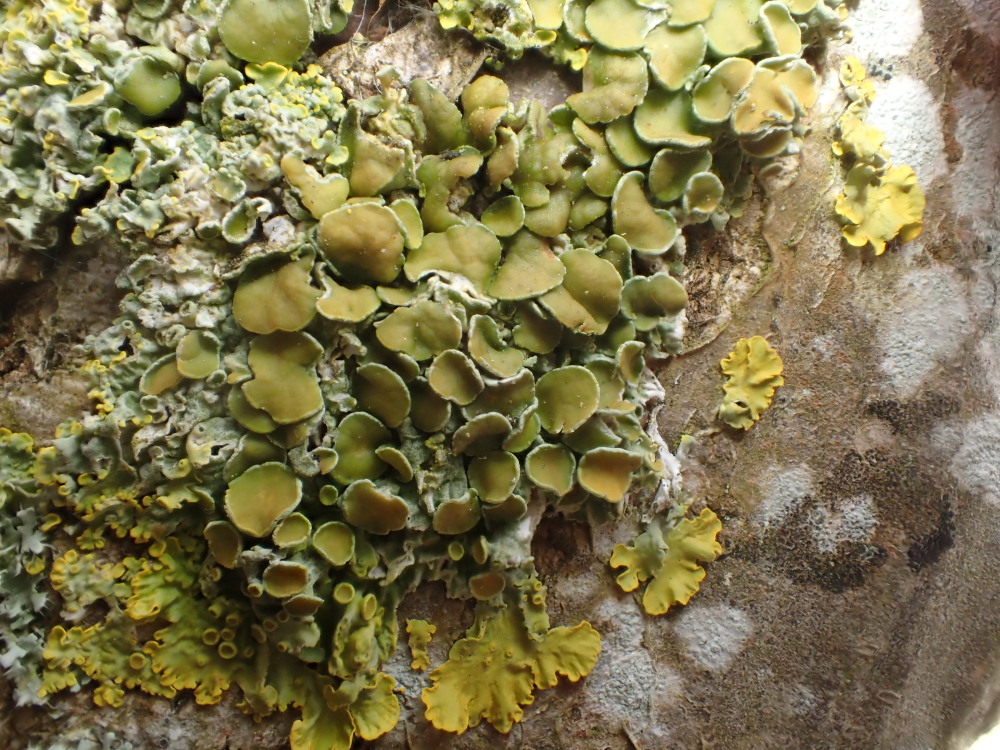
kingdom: Fungi
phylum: Ascomycota
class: Lecanoromycetes
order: Teloschistales
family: Teloschistaceae
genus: Xanthoria
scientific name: Xanthoria parietina
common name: almindelig væggelav
